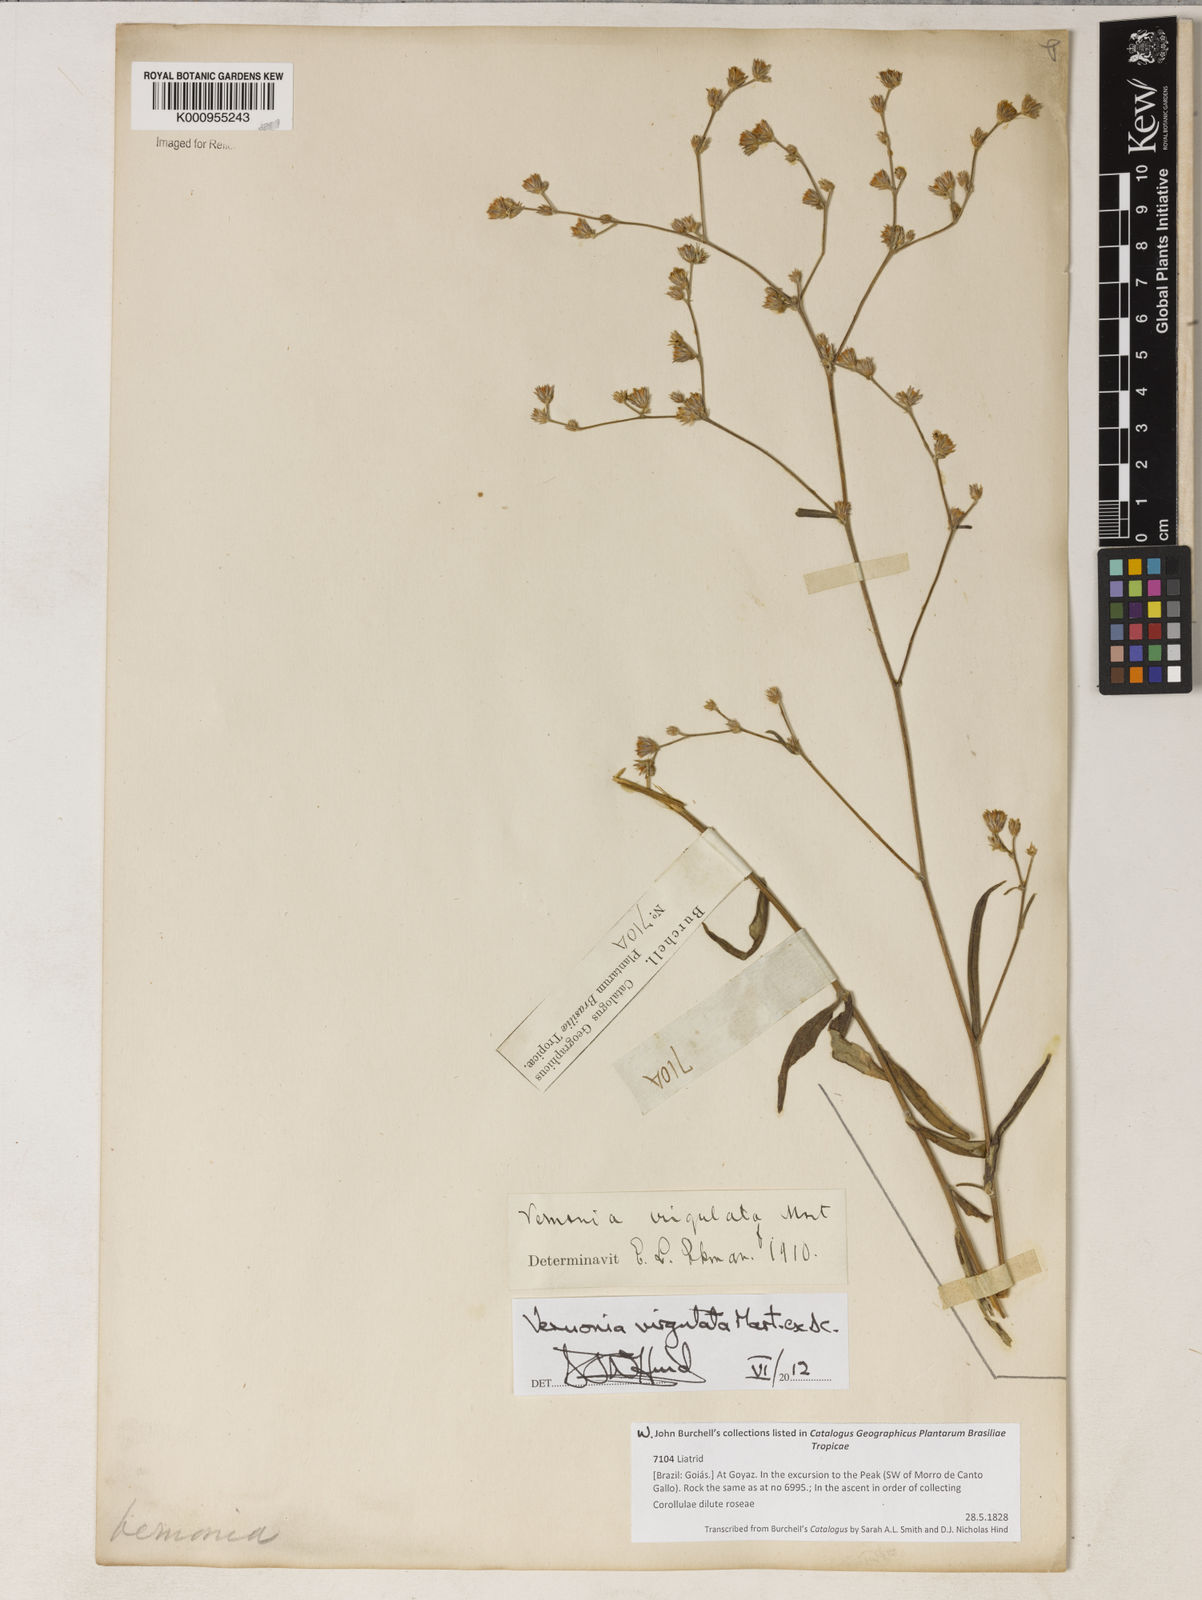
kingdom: Plantae
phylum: Tracheophyta
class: Magnoliopsida
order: Asterales
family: Asteraceae
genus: Lessingianthus
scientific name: Lessingianthus virgulatus
